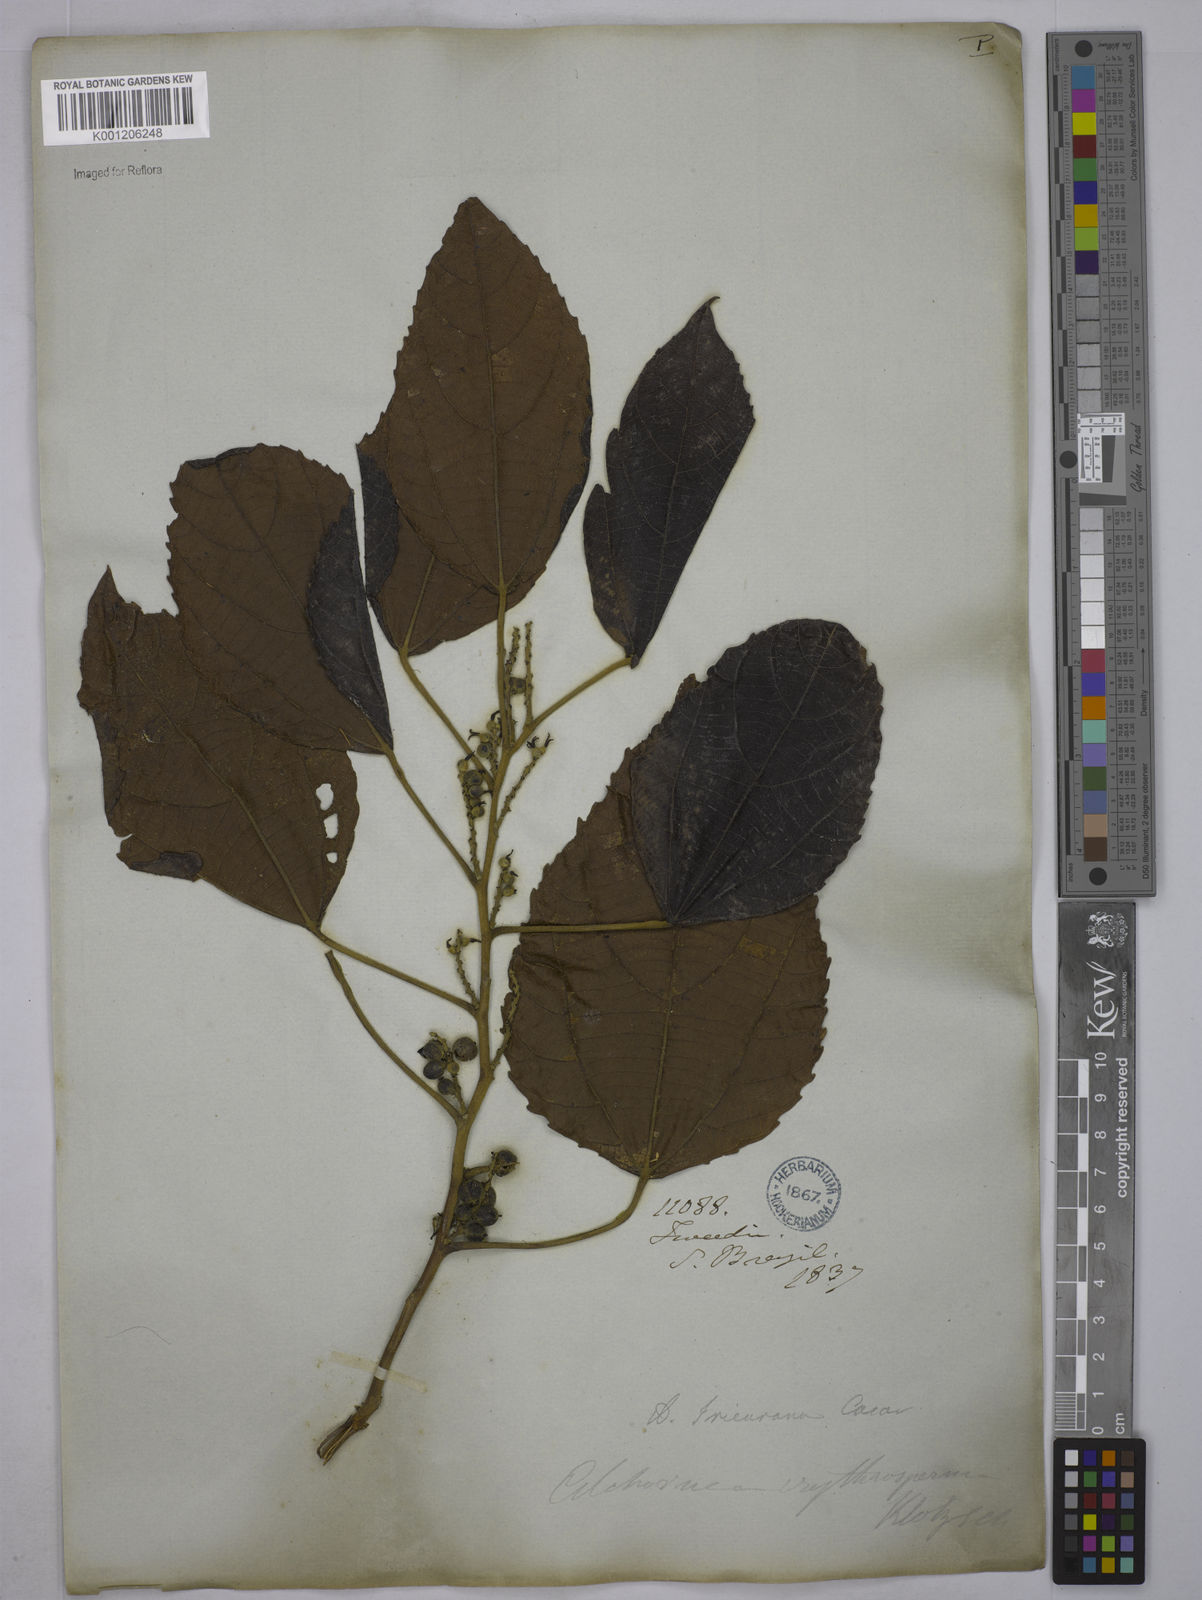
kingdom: Plantae
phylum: Tracheophyta
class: Magnoliopsida
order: Malpighiales
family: Euphorbiaceae
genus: Alchornea
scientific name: Alchornea glandulosa
